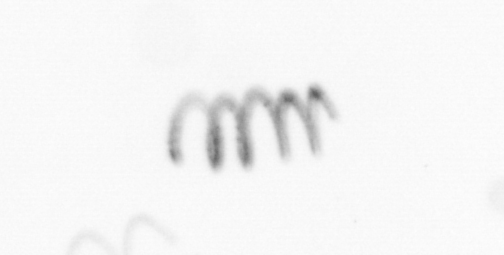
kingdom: Chromista
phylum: Ochrophyta
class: Bacillariophyceae
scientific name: Bacillariophyceae
